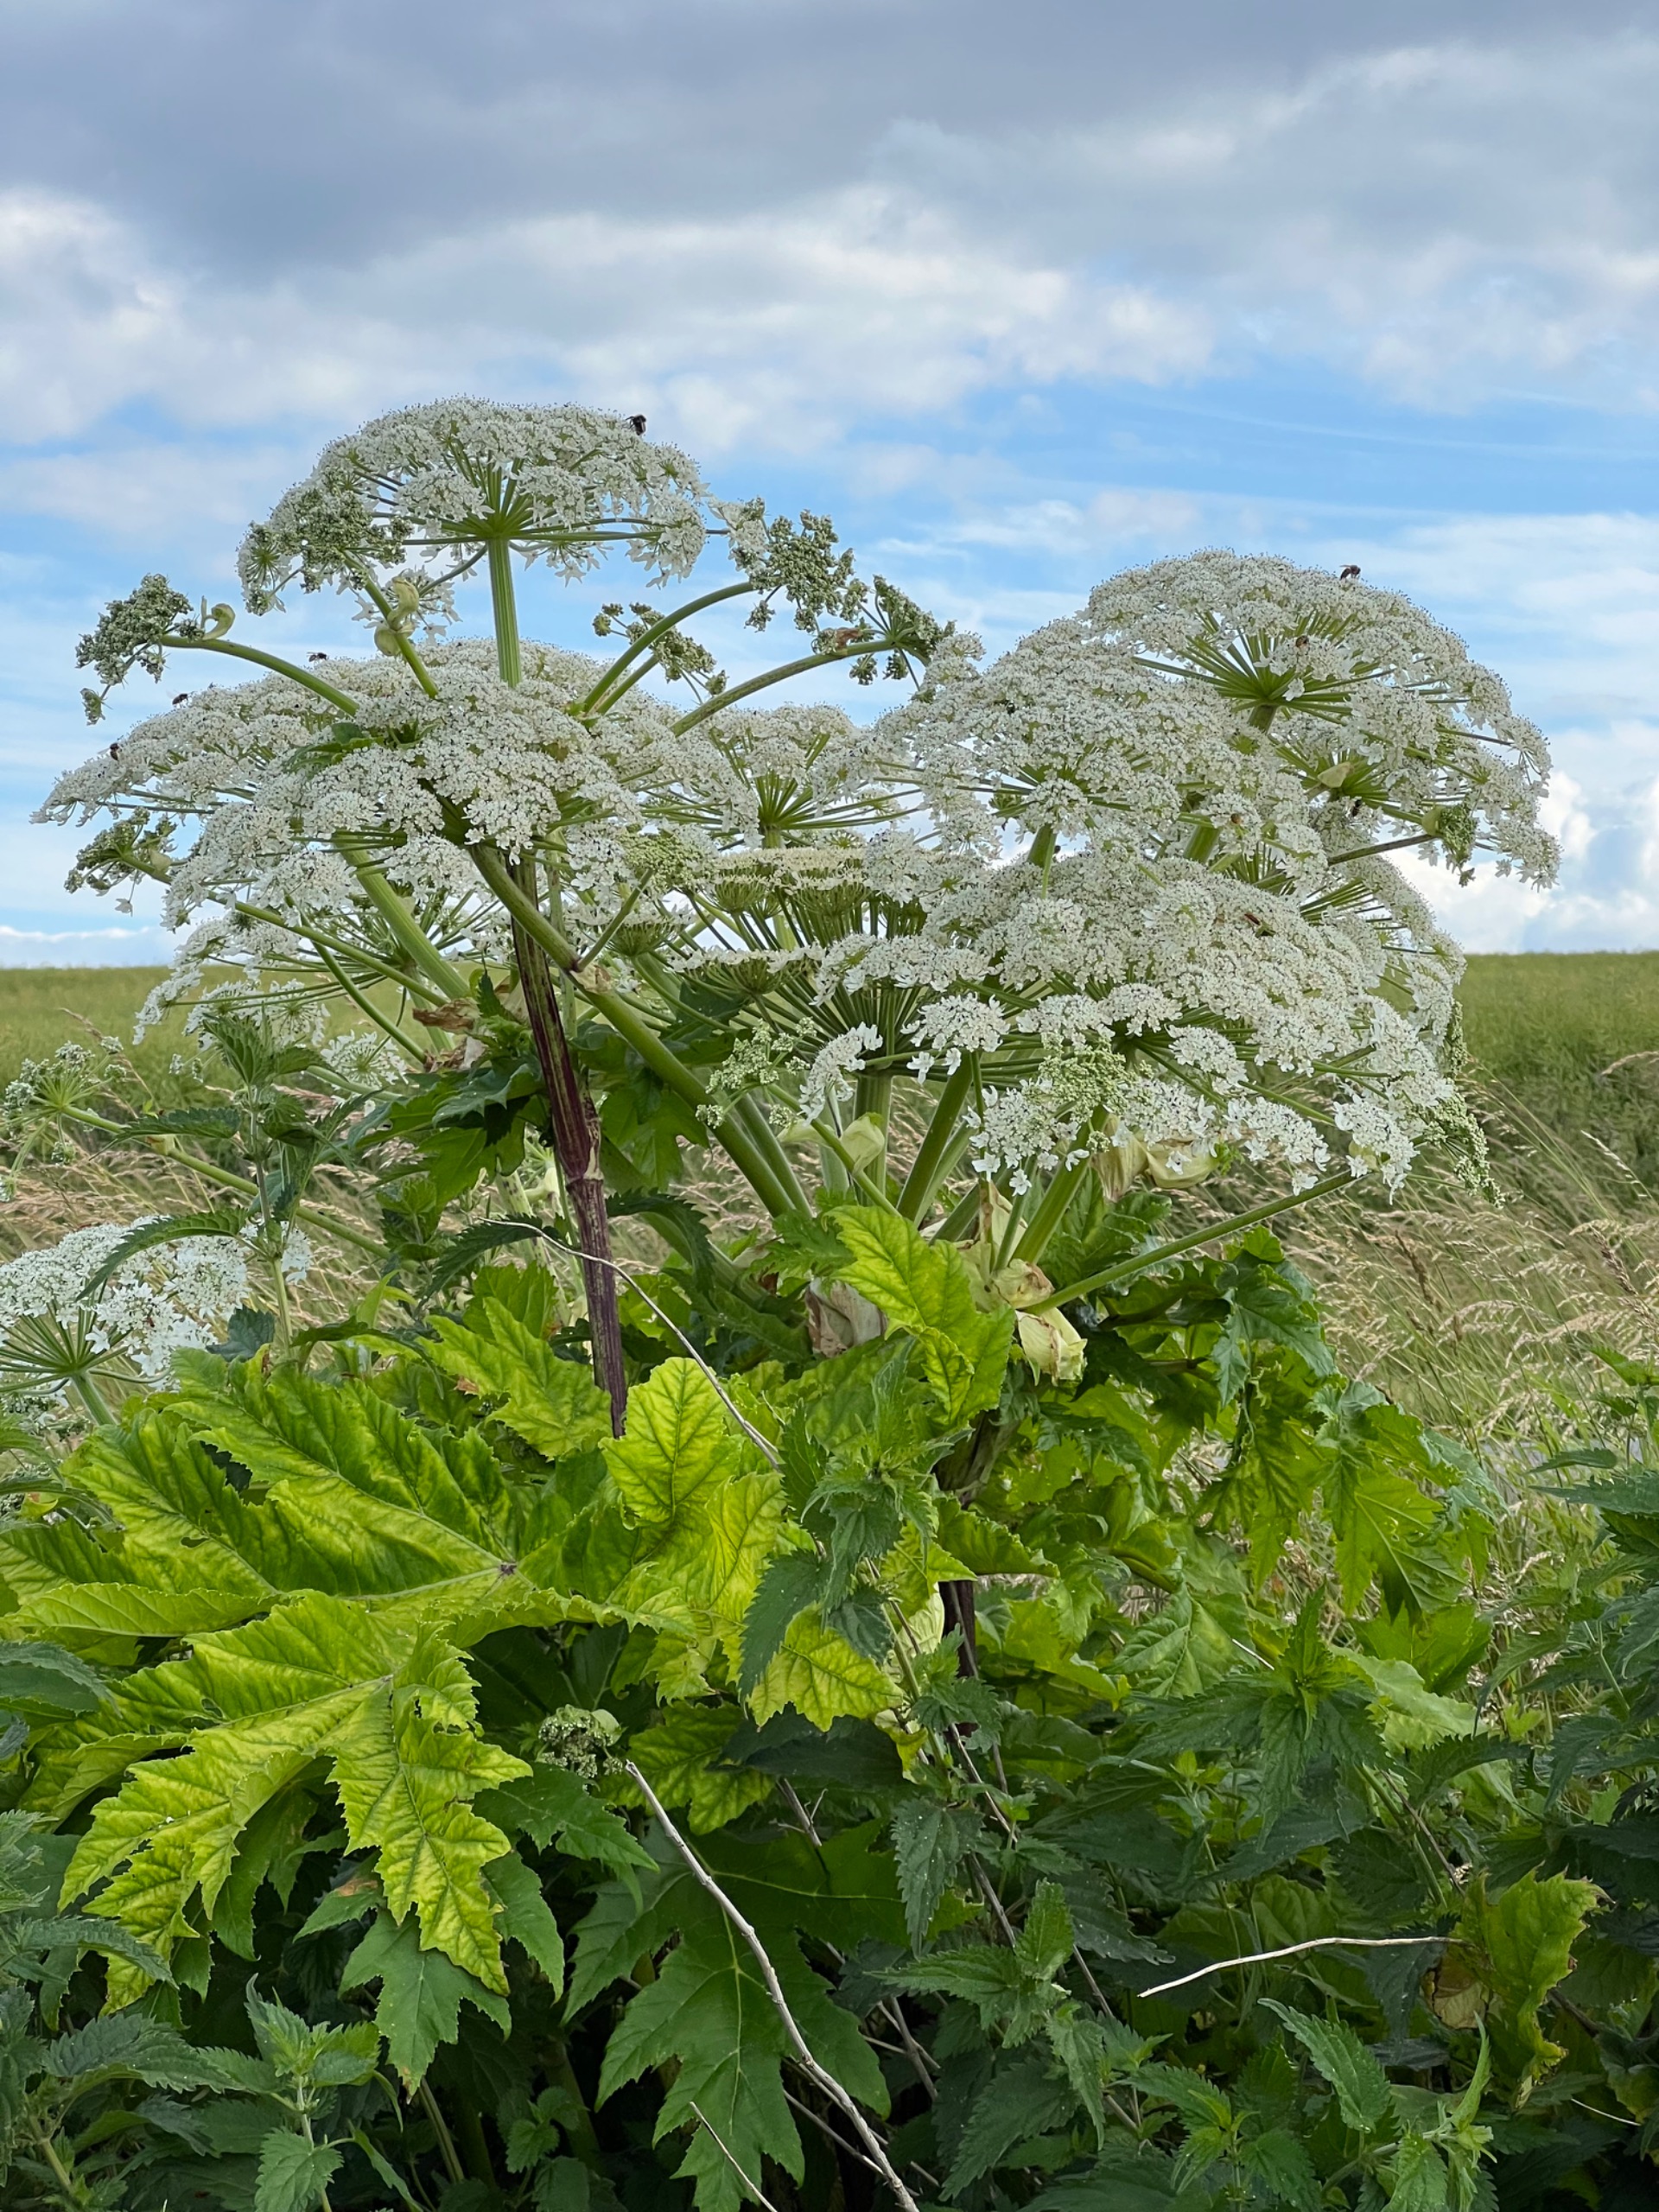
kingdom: Plantae
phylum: Tracheophyta
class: Magnoliopsida
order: Apiales
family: Apiaceae
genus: Heracleum
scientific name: Heracleum mantegazzianum
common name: Kæmpe-bjørneklo
